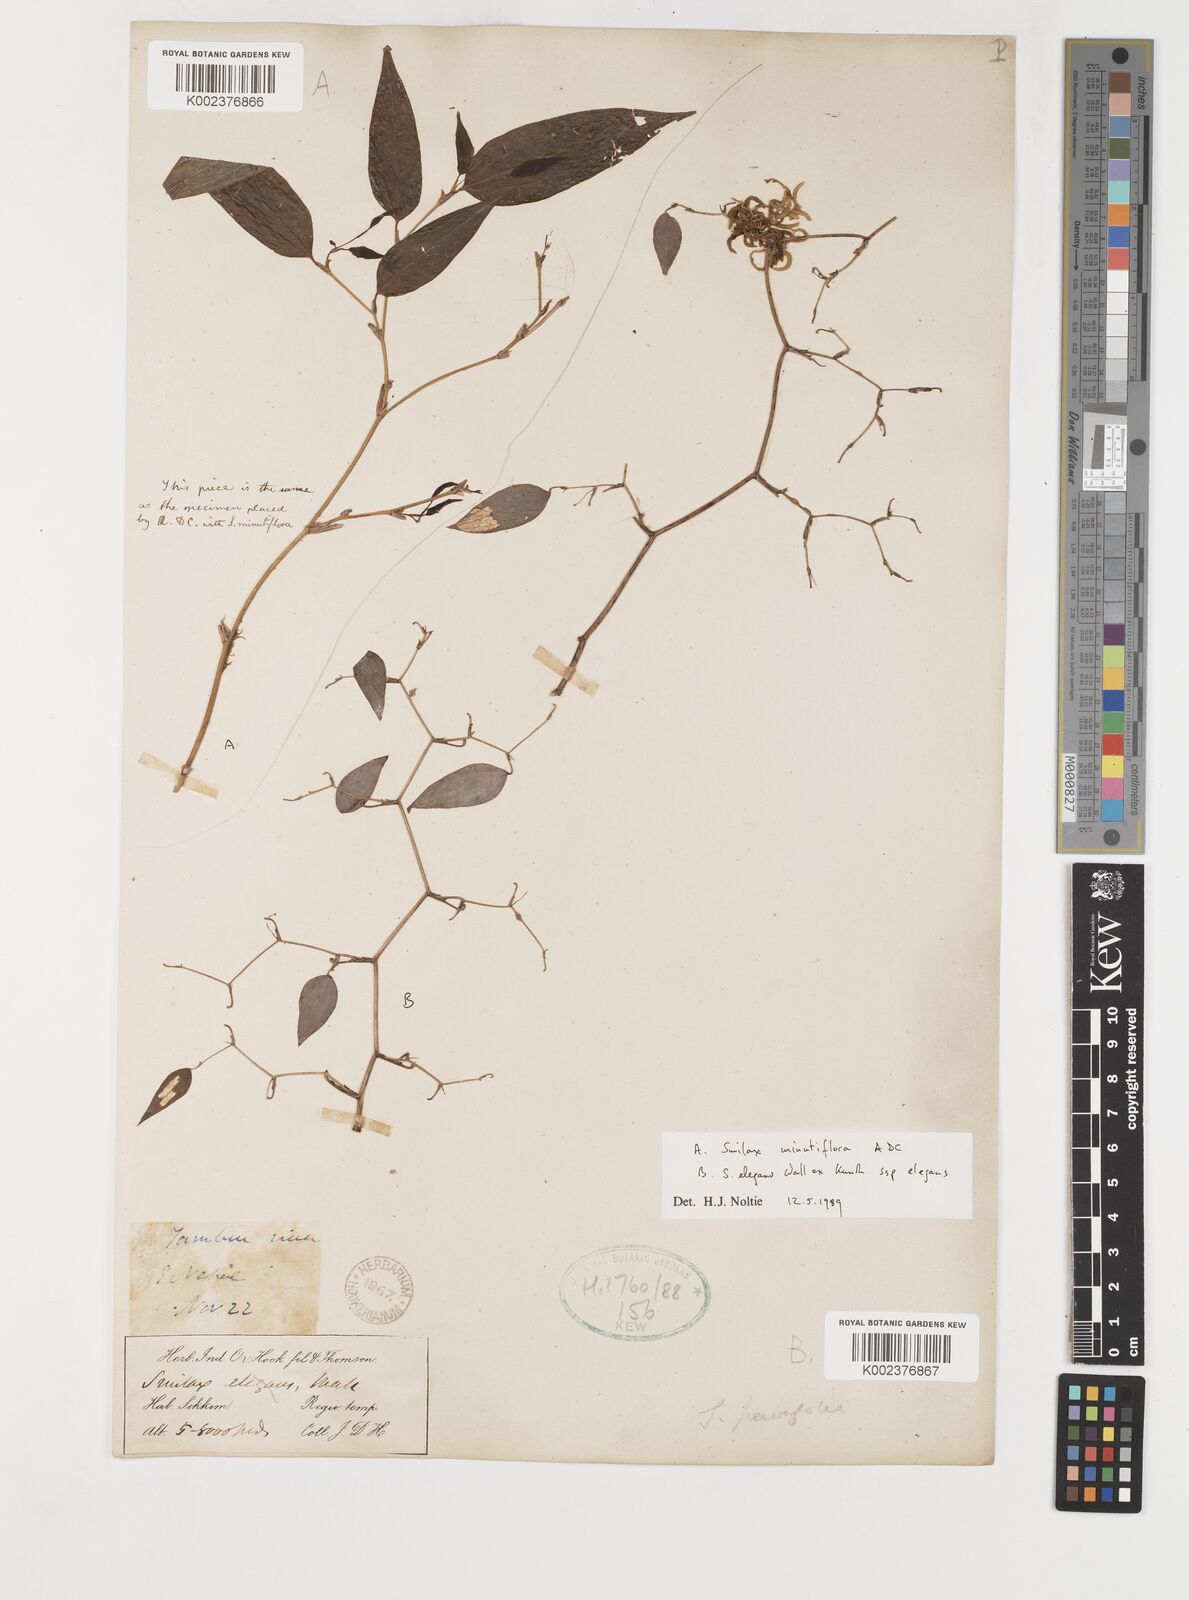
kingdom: Plantae
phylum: Tracheophyta
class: Liliopsida
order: Liliales
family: Smilacaceae
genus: Smilax
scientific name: Smilax elegans
